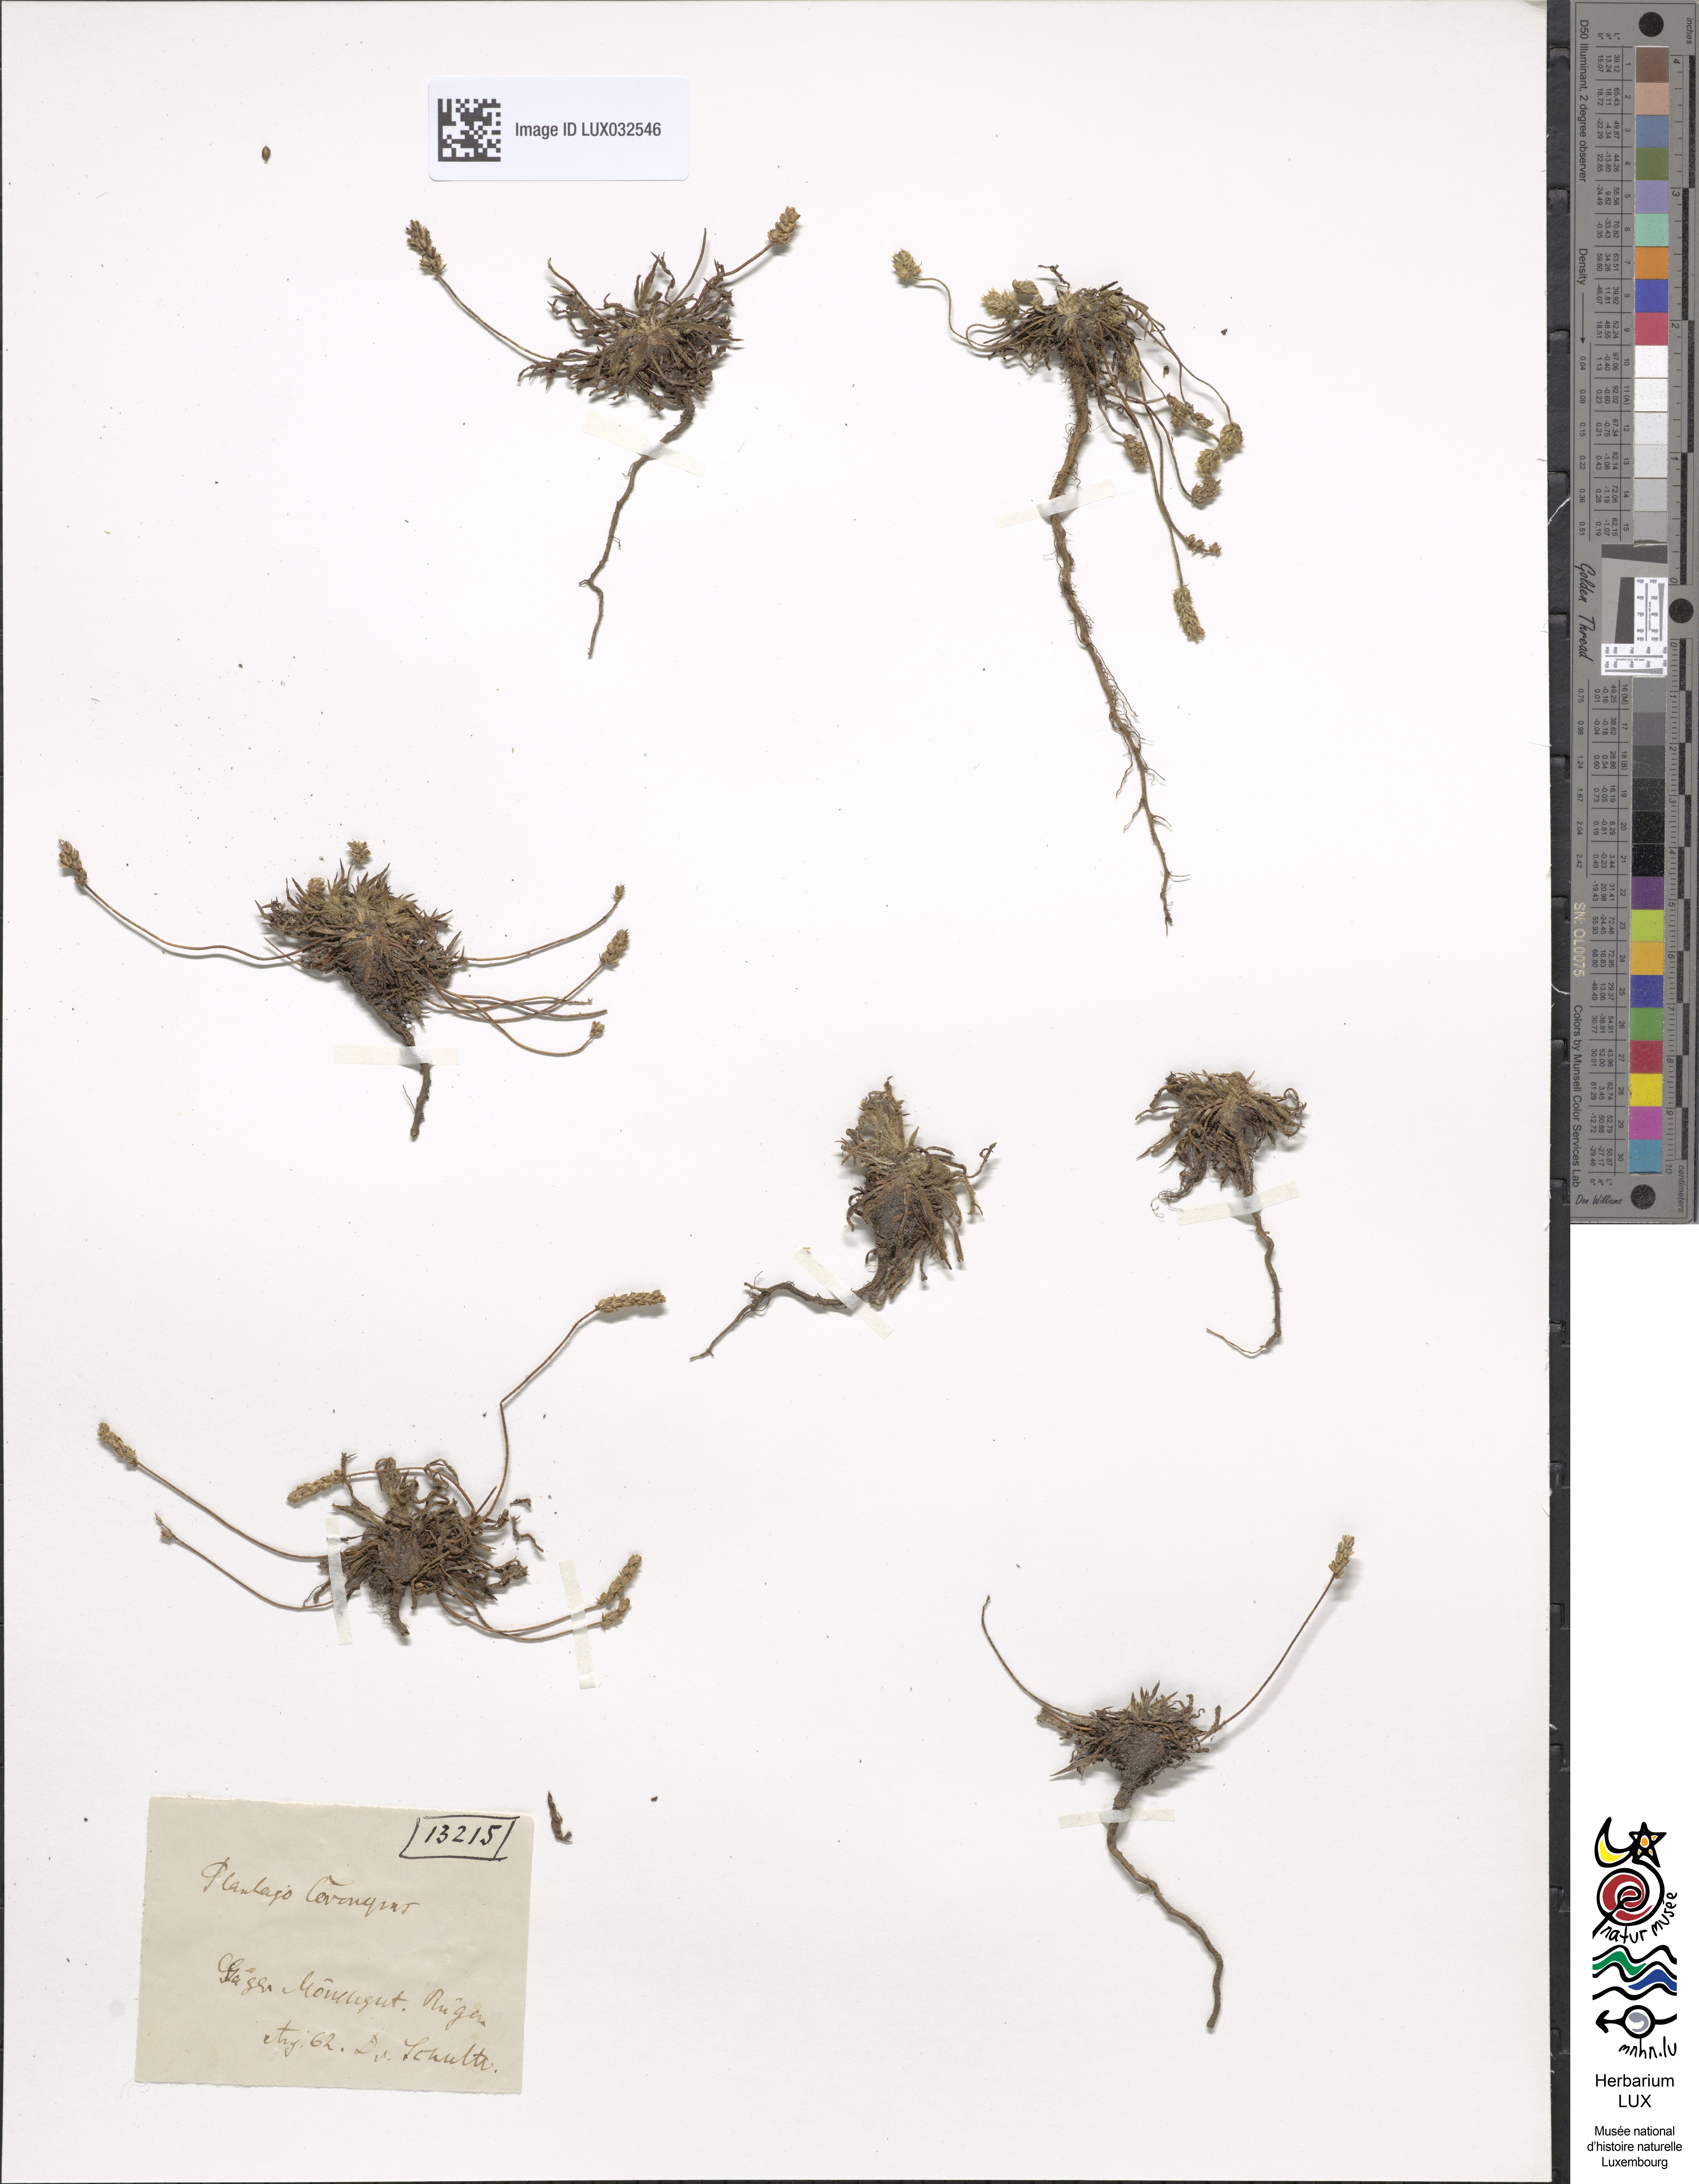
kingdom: Plantae
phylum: Tracheophyta
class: Magnoliopsida
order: Lamiales
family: Plantaginaceae
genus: Plantago
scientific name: Plantago coronopus
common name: Buck's-horn plantain
